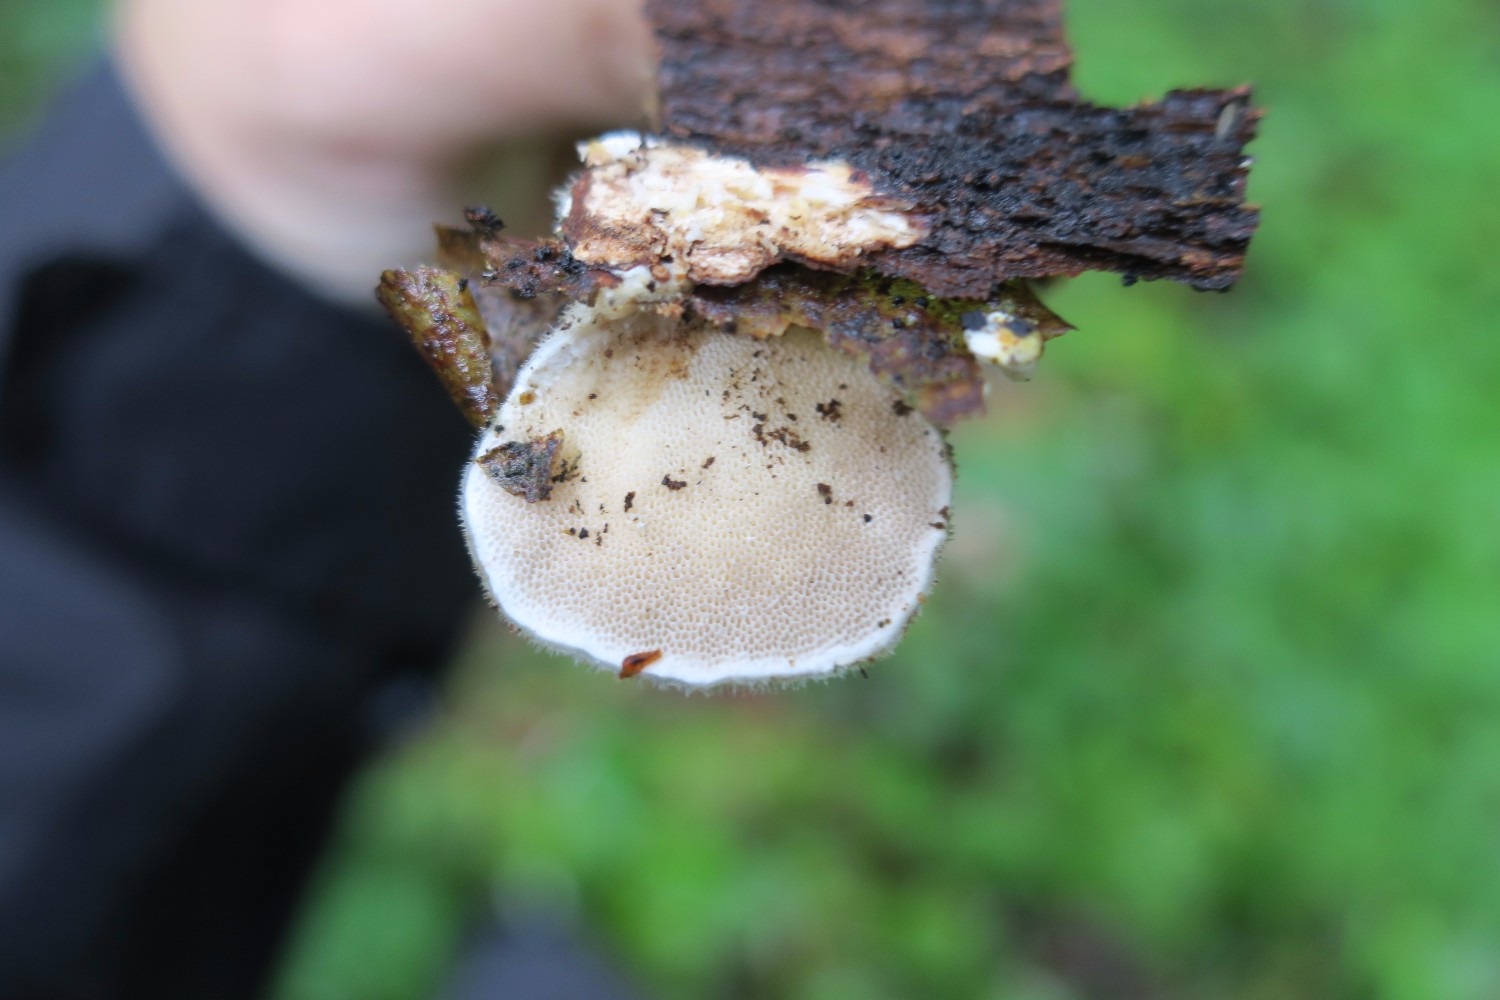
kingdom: Fungi
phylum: Basidiomycota
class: Agaricomycetes
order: Polyporales
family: Polyporaceae
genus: Trametes
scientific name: Trametes hirsuta
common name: håret læderporesvamp
